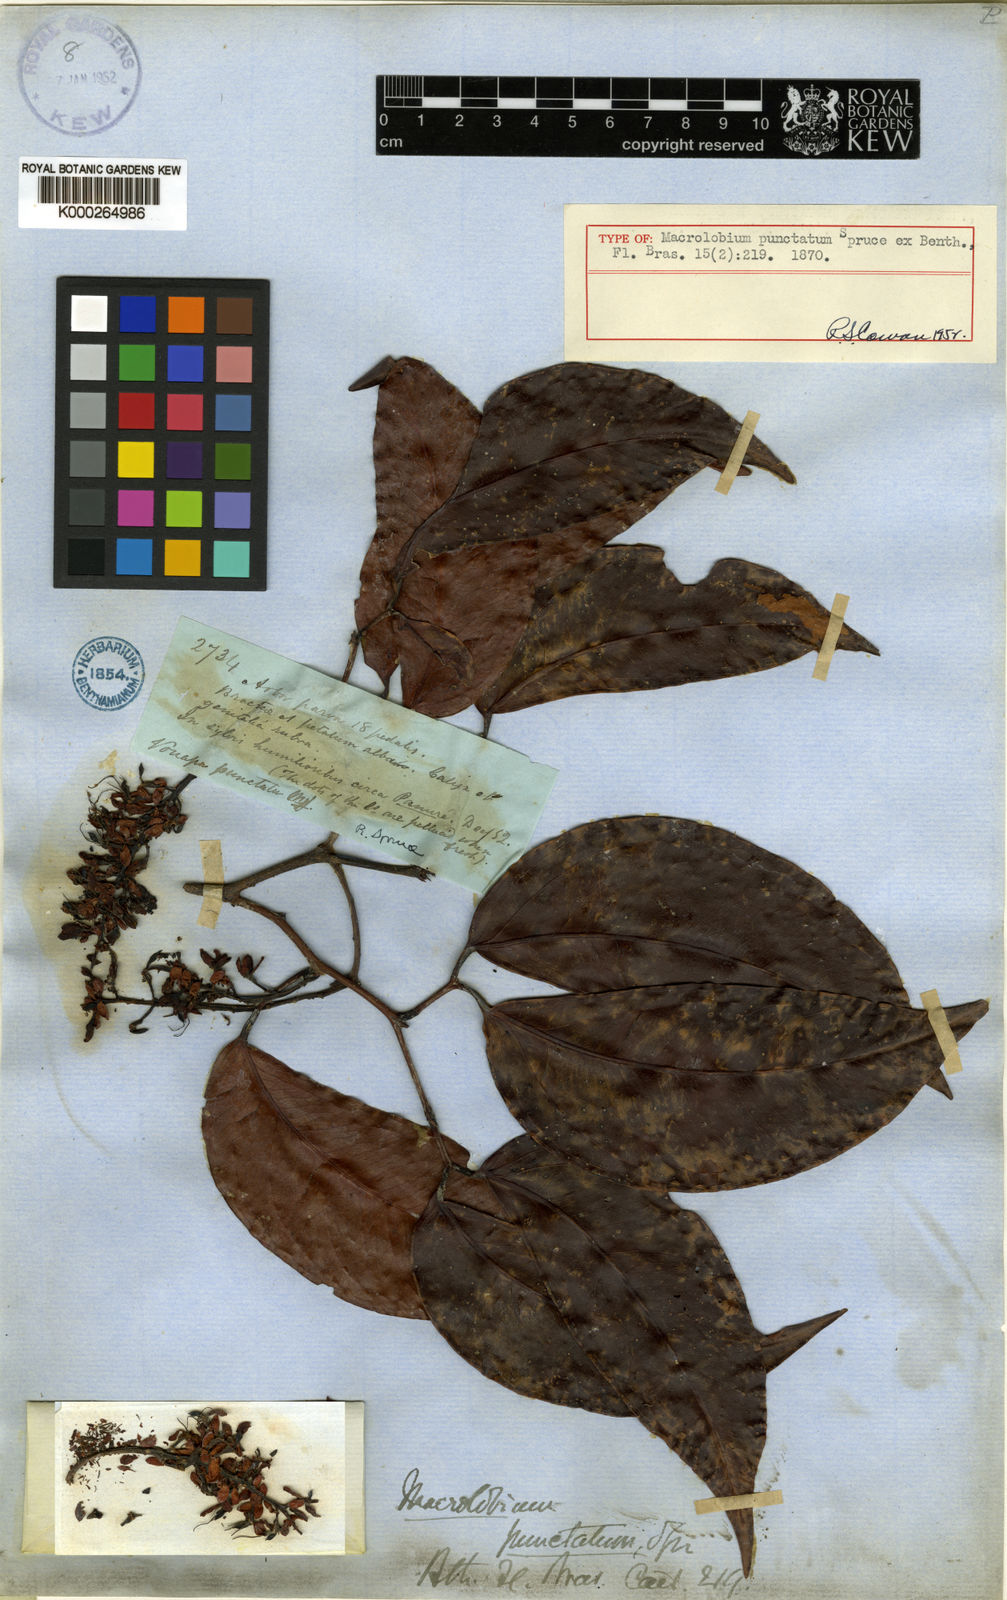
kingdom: Plantae
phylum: Tracheophyta
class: Magnoliopsida
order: Fabales
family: Fabaceae
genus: Macrolobium
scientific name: Macrolobium punctatum
